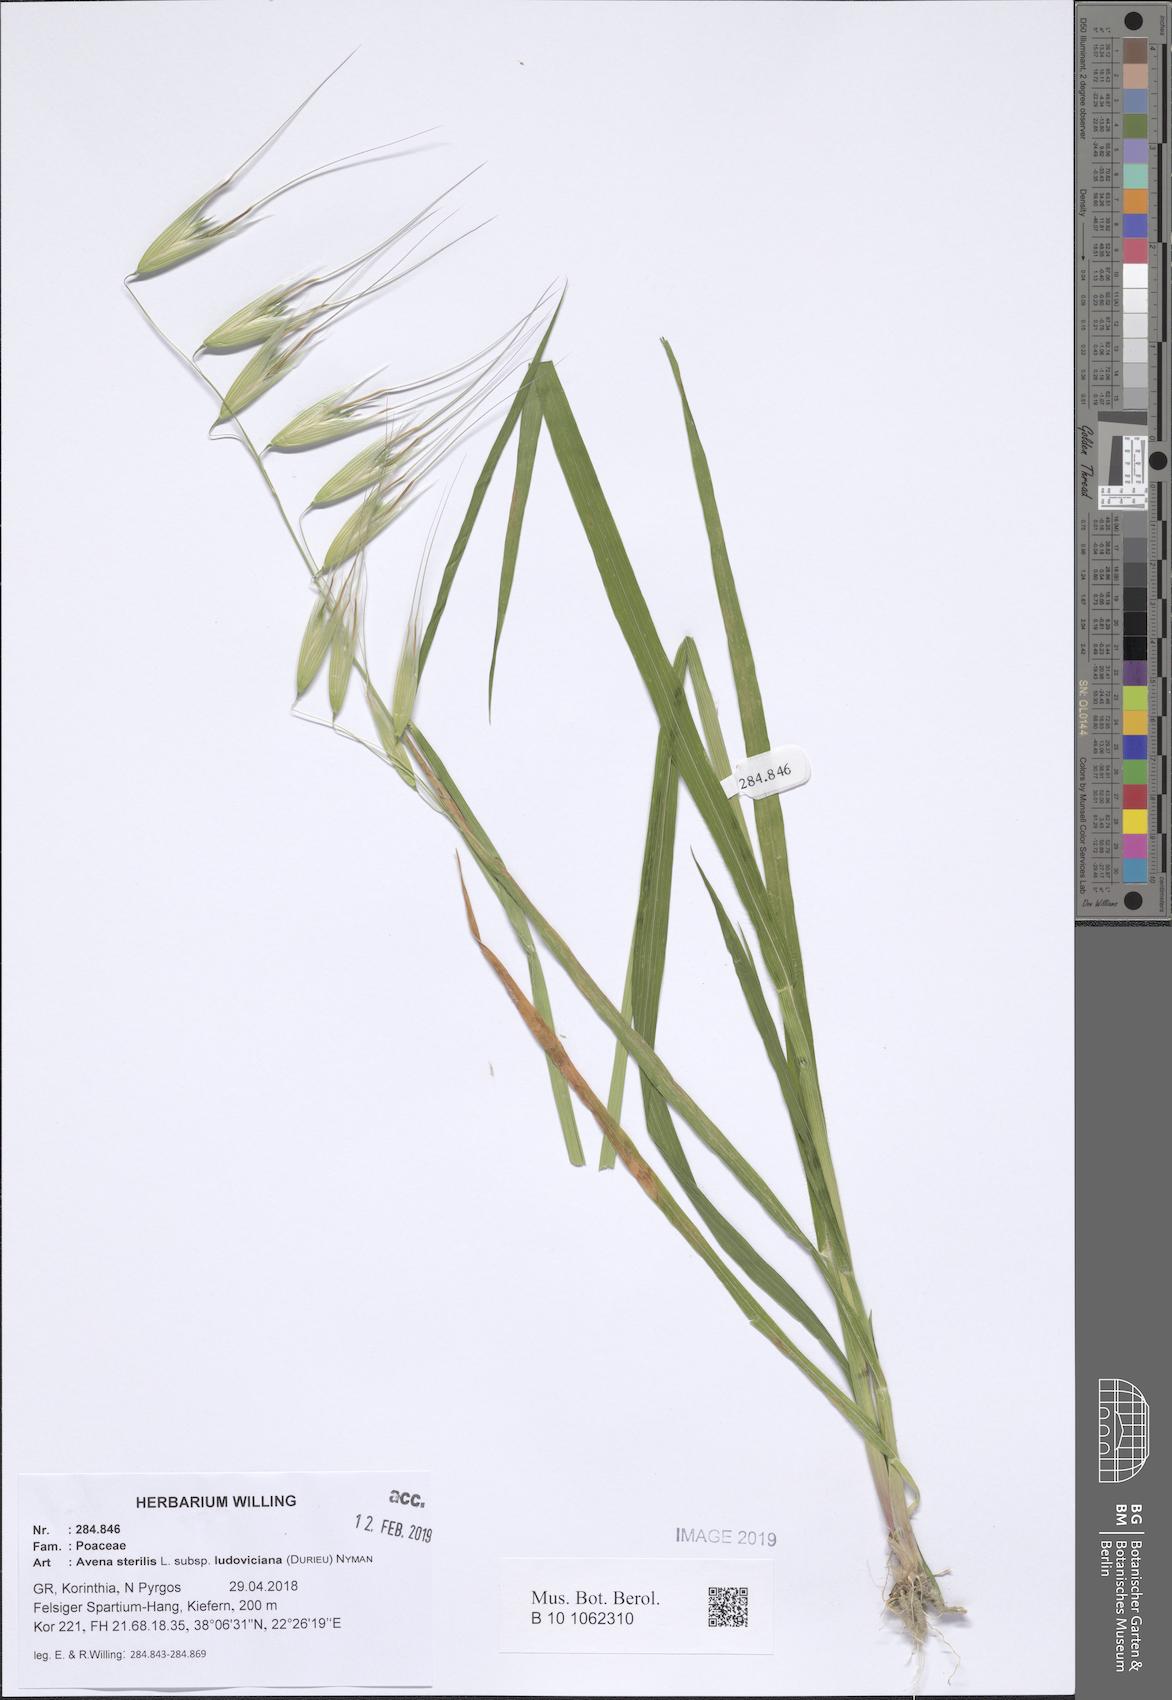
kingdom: Plantae
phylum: Tracheophyta
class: Liliopsida
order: Poales
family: Poaceae
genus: Avena
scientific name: Avena sterilis
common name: Animated oat
